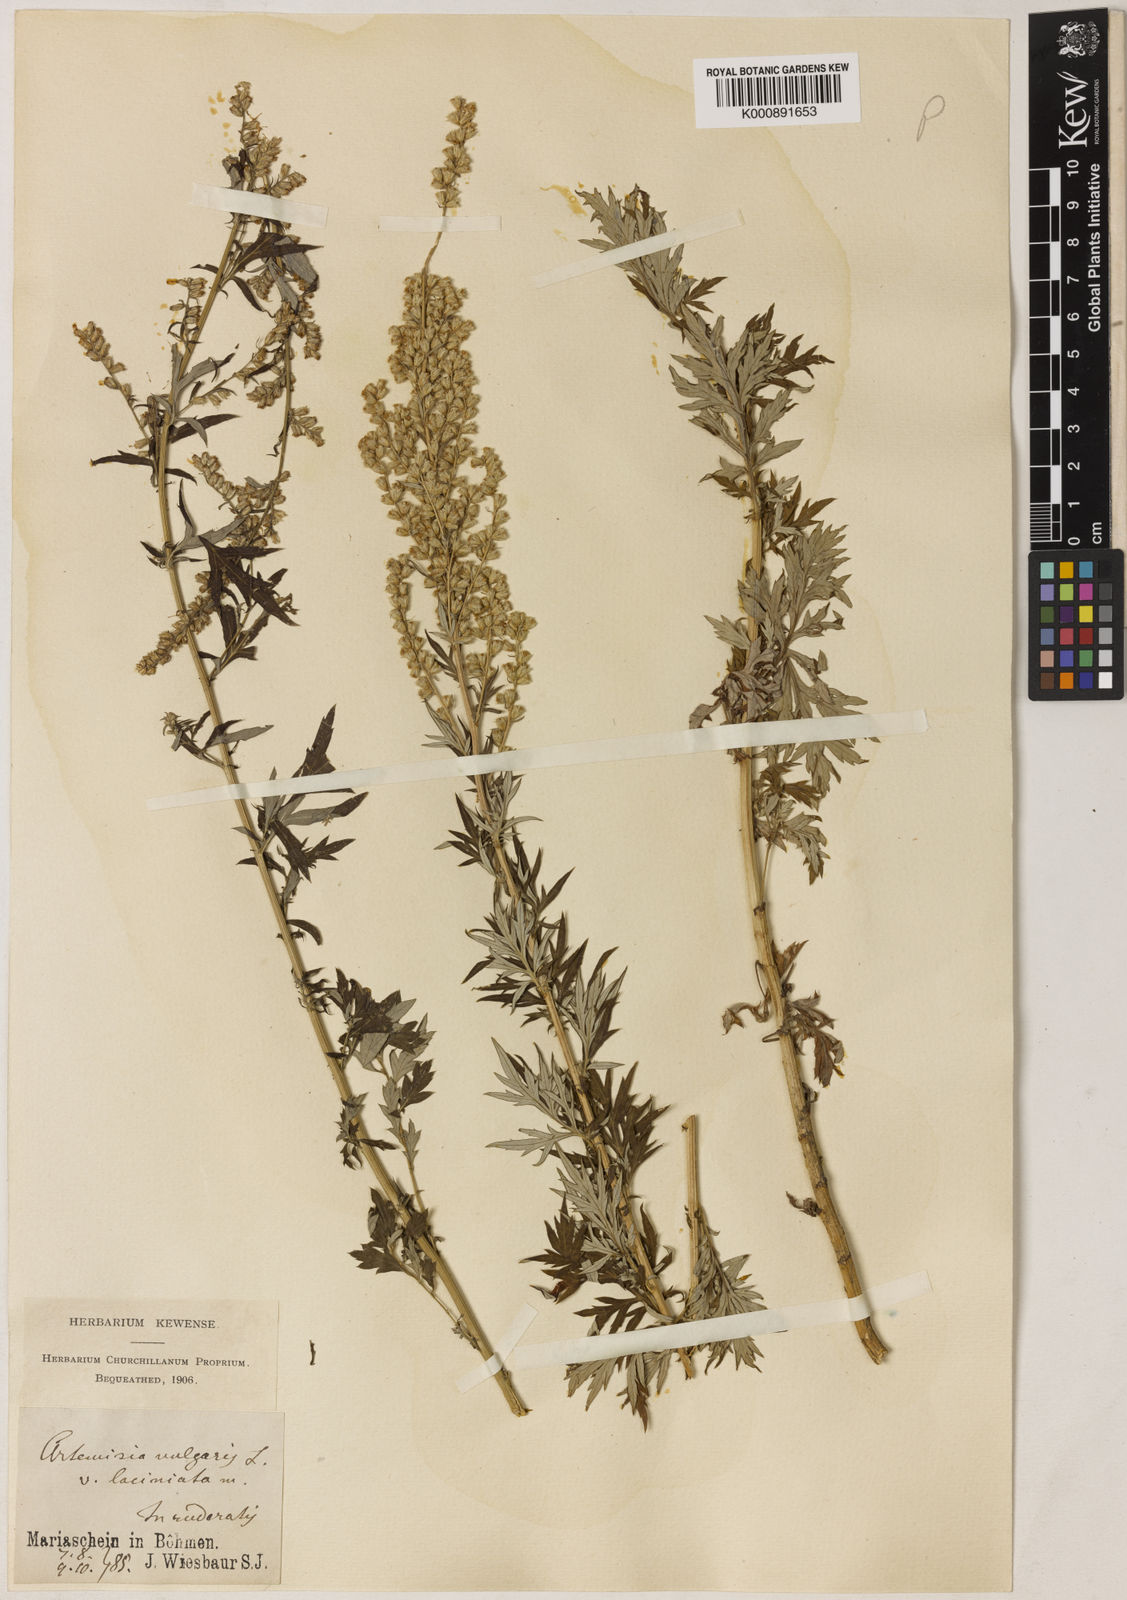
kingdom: Plantae
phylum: Tracheophyta
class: Magnoliopsida
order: Asterales
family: Asteraceae
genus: Artemisia
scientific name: Artemisia vulgaris
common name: Mugwort
